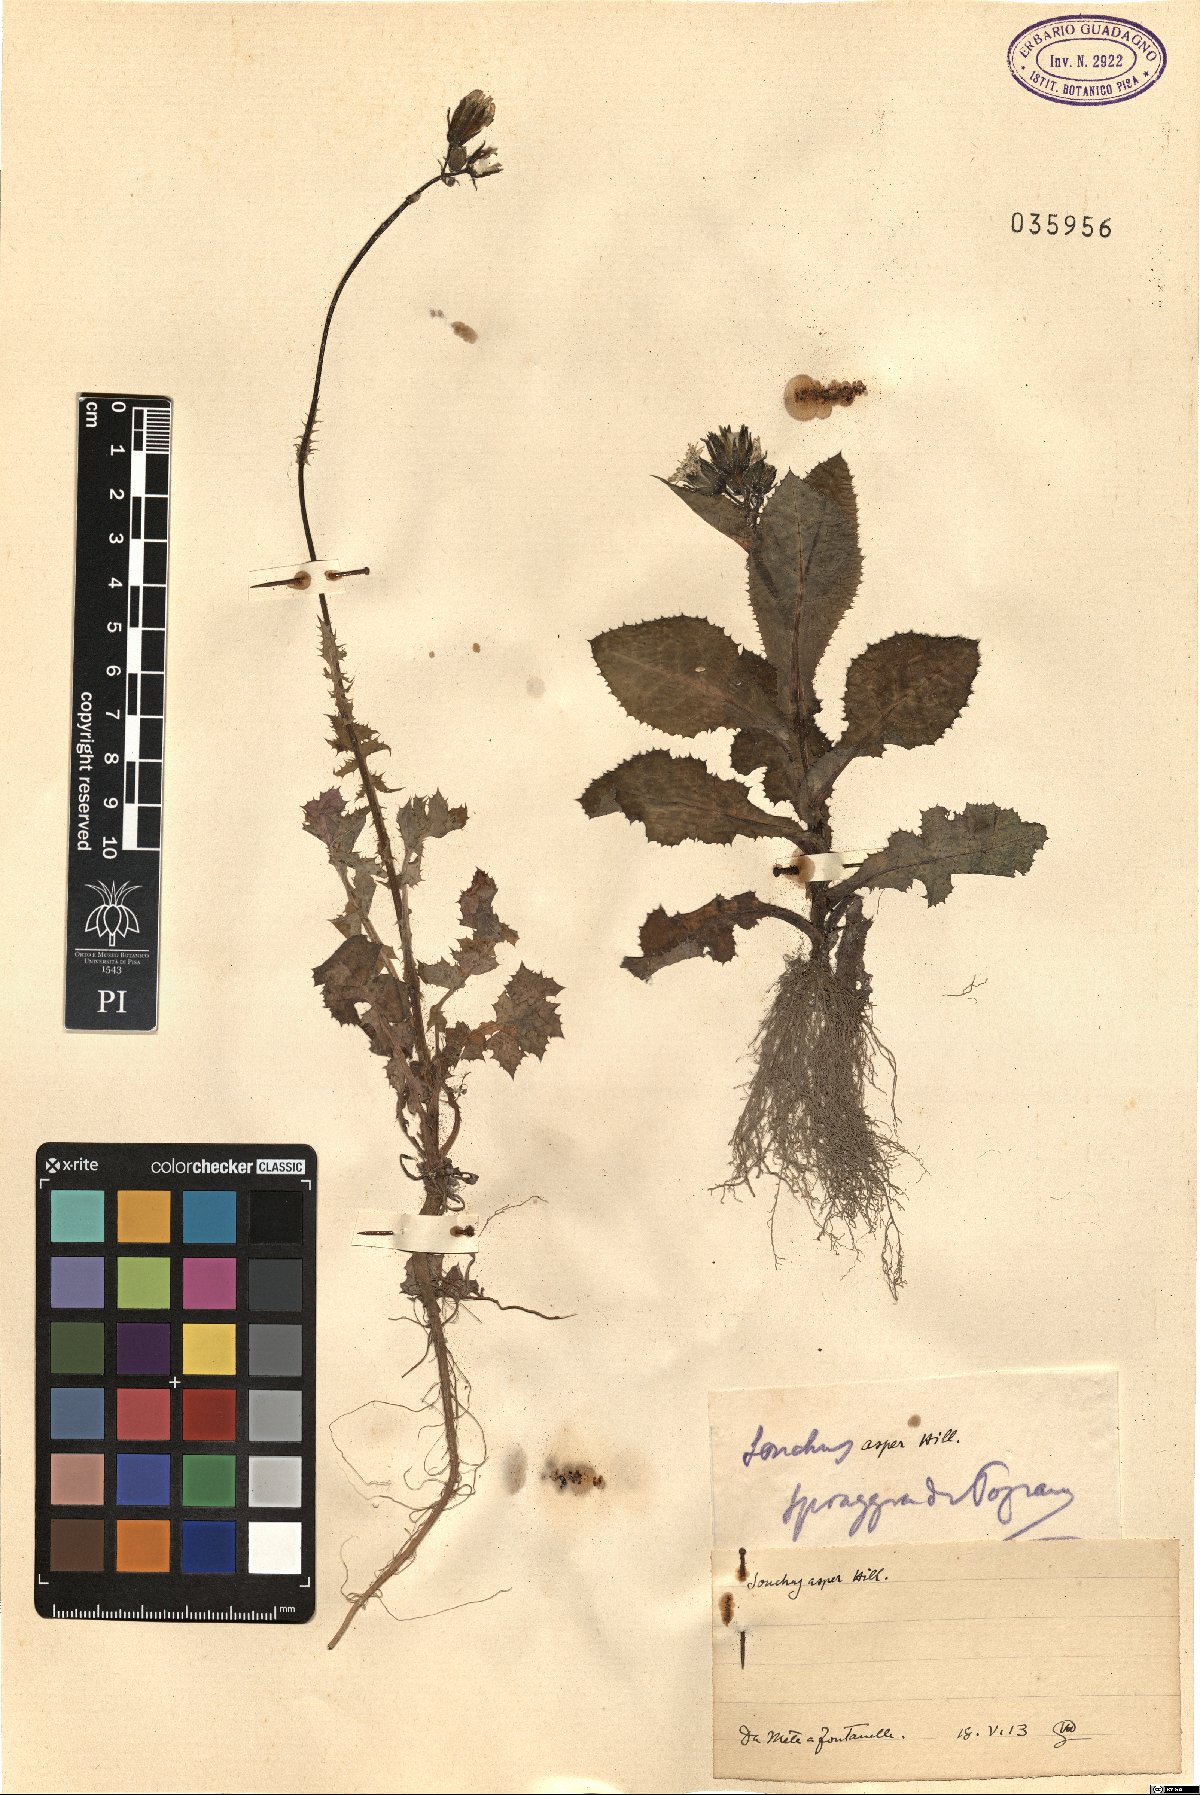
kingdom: Plantae
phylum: Tracheophyta
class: Magnoliopsida
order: Asterales
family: Asteraceae
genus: Sonchus
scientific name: Sonchus asper
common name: Prickly sow-thistle
